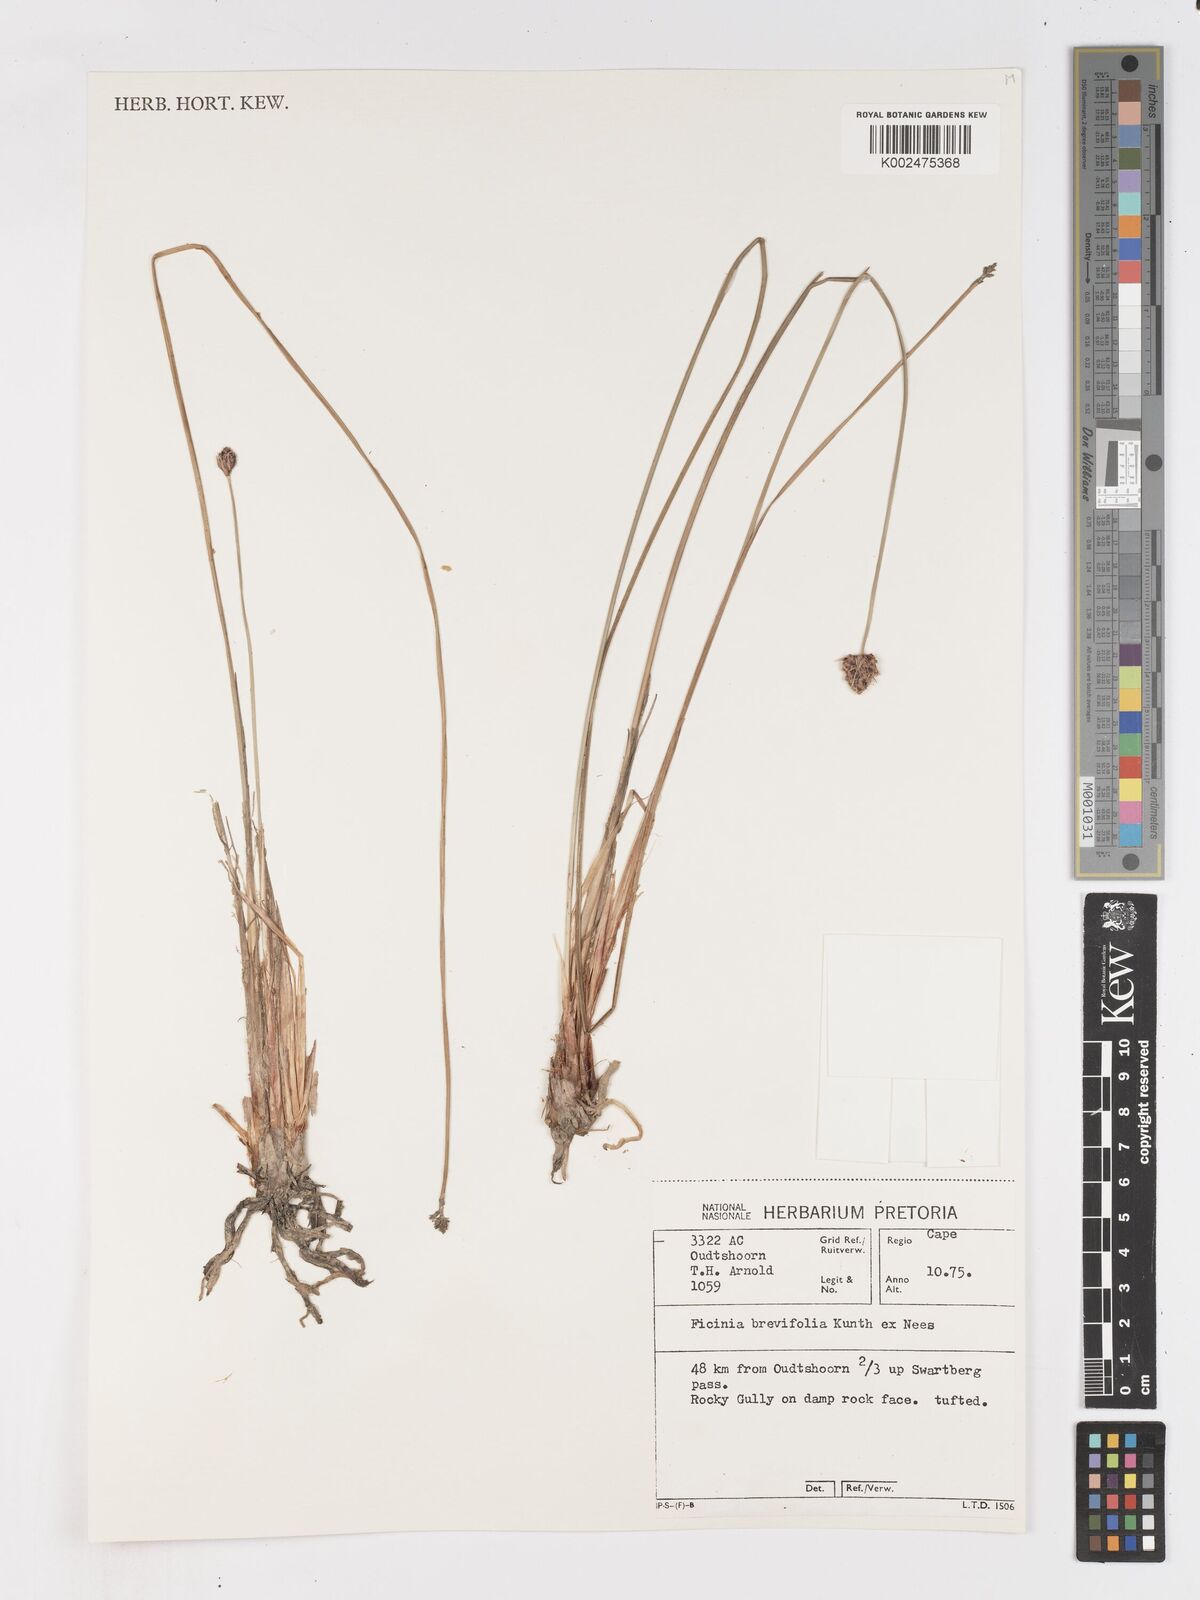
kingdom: Plantae
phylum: Tracheophyta
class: Liliopsida
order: Poales
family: Cyperaceae
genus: Ficinia
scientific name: Ficinia brevifolia
